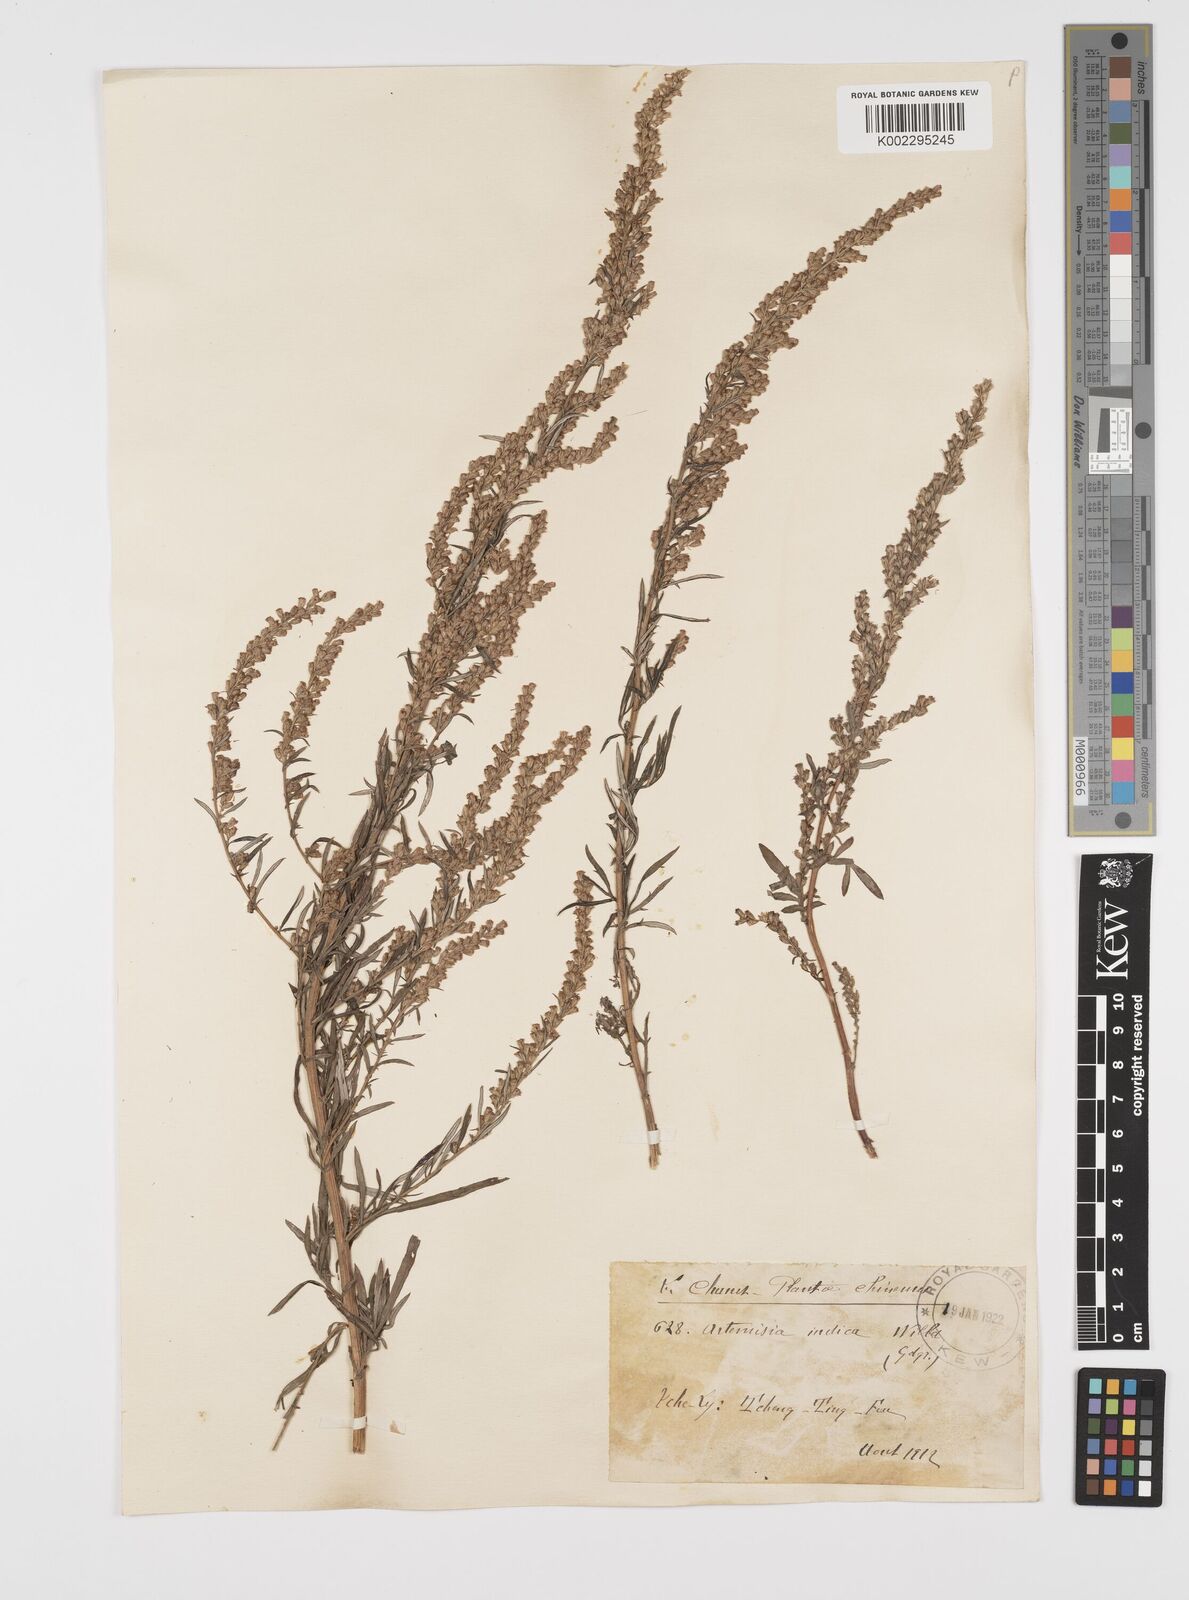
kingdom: Plantae
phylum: Tracheophyta
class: Magnoliopsida
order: Asterales
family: Asteraceae
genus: Artemisia
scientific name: Artemisia indica
